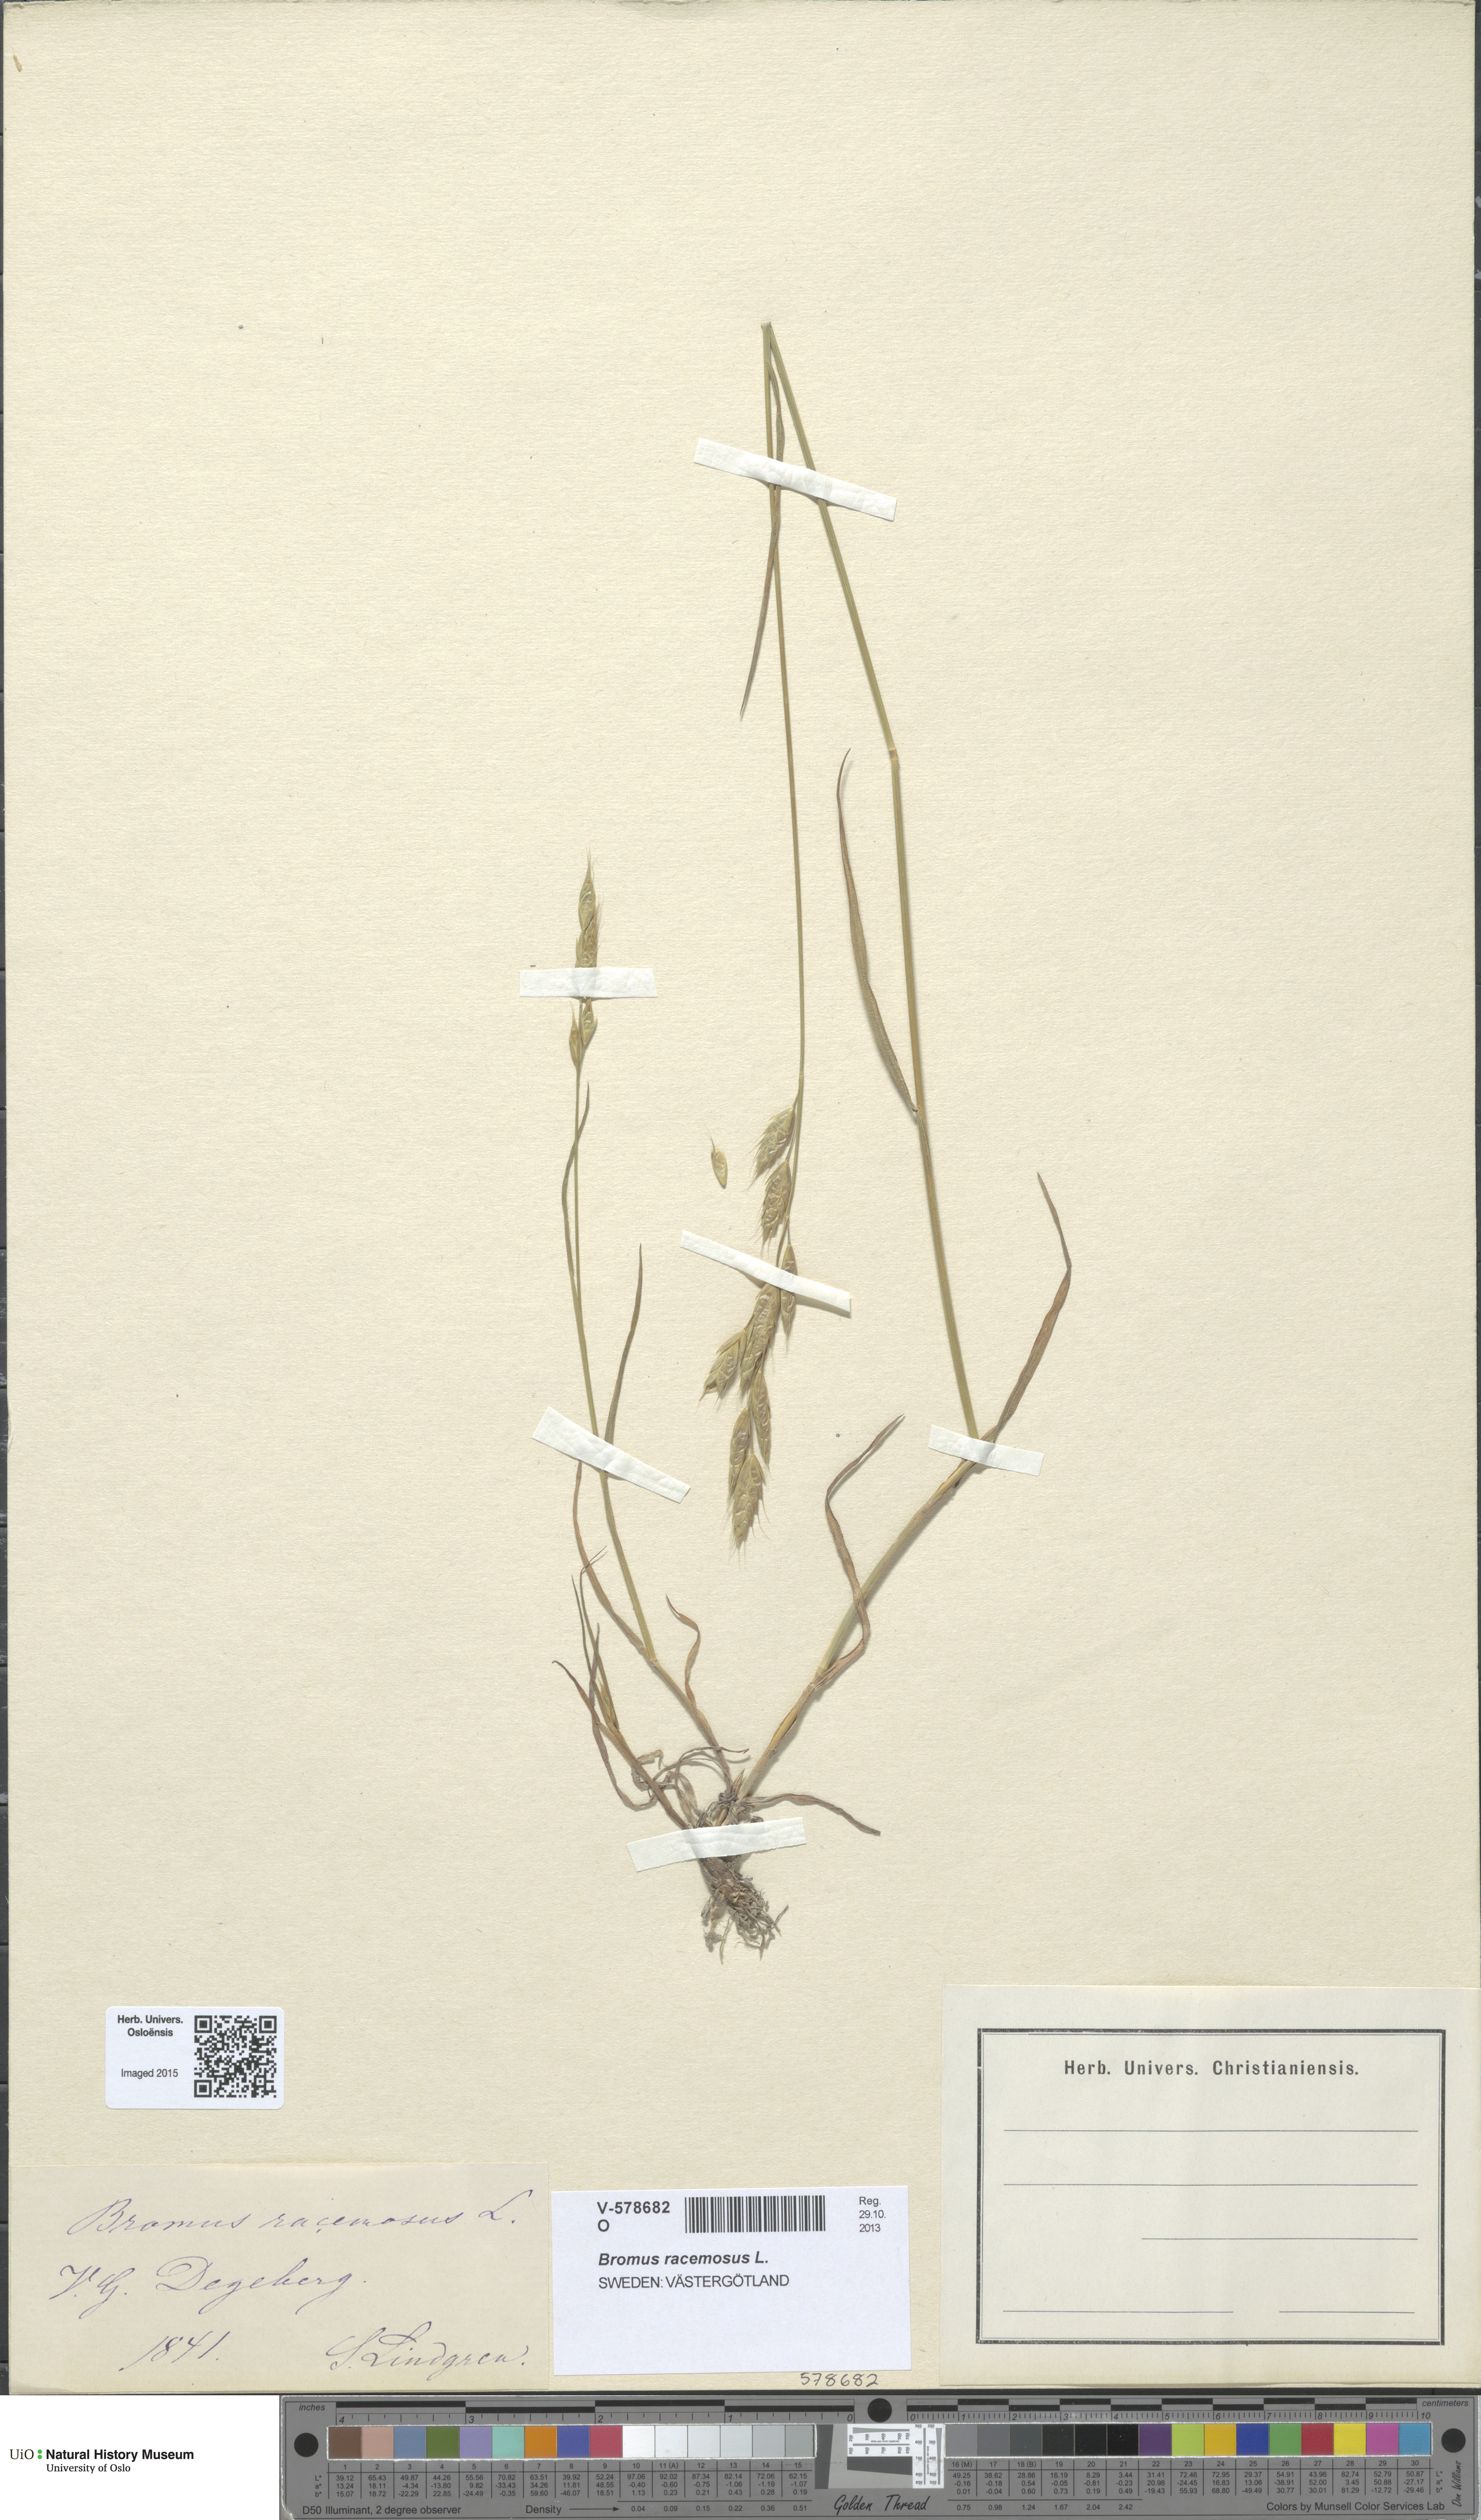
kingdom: Plantae
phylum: Tracheophyta
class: Liliopsida
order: Poales
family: Poaceae
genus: Bromus
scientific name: Bromus racemosus
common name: Bald brome
